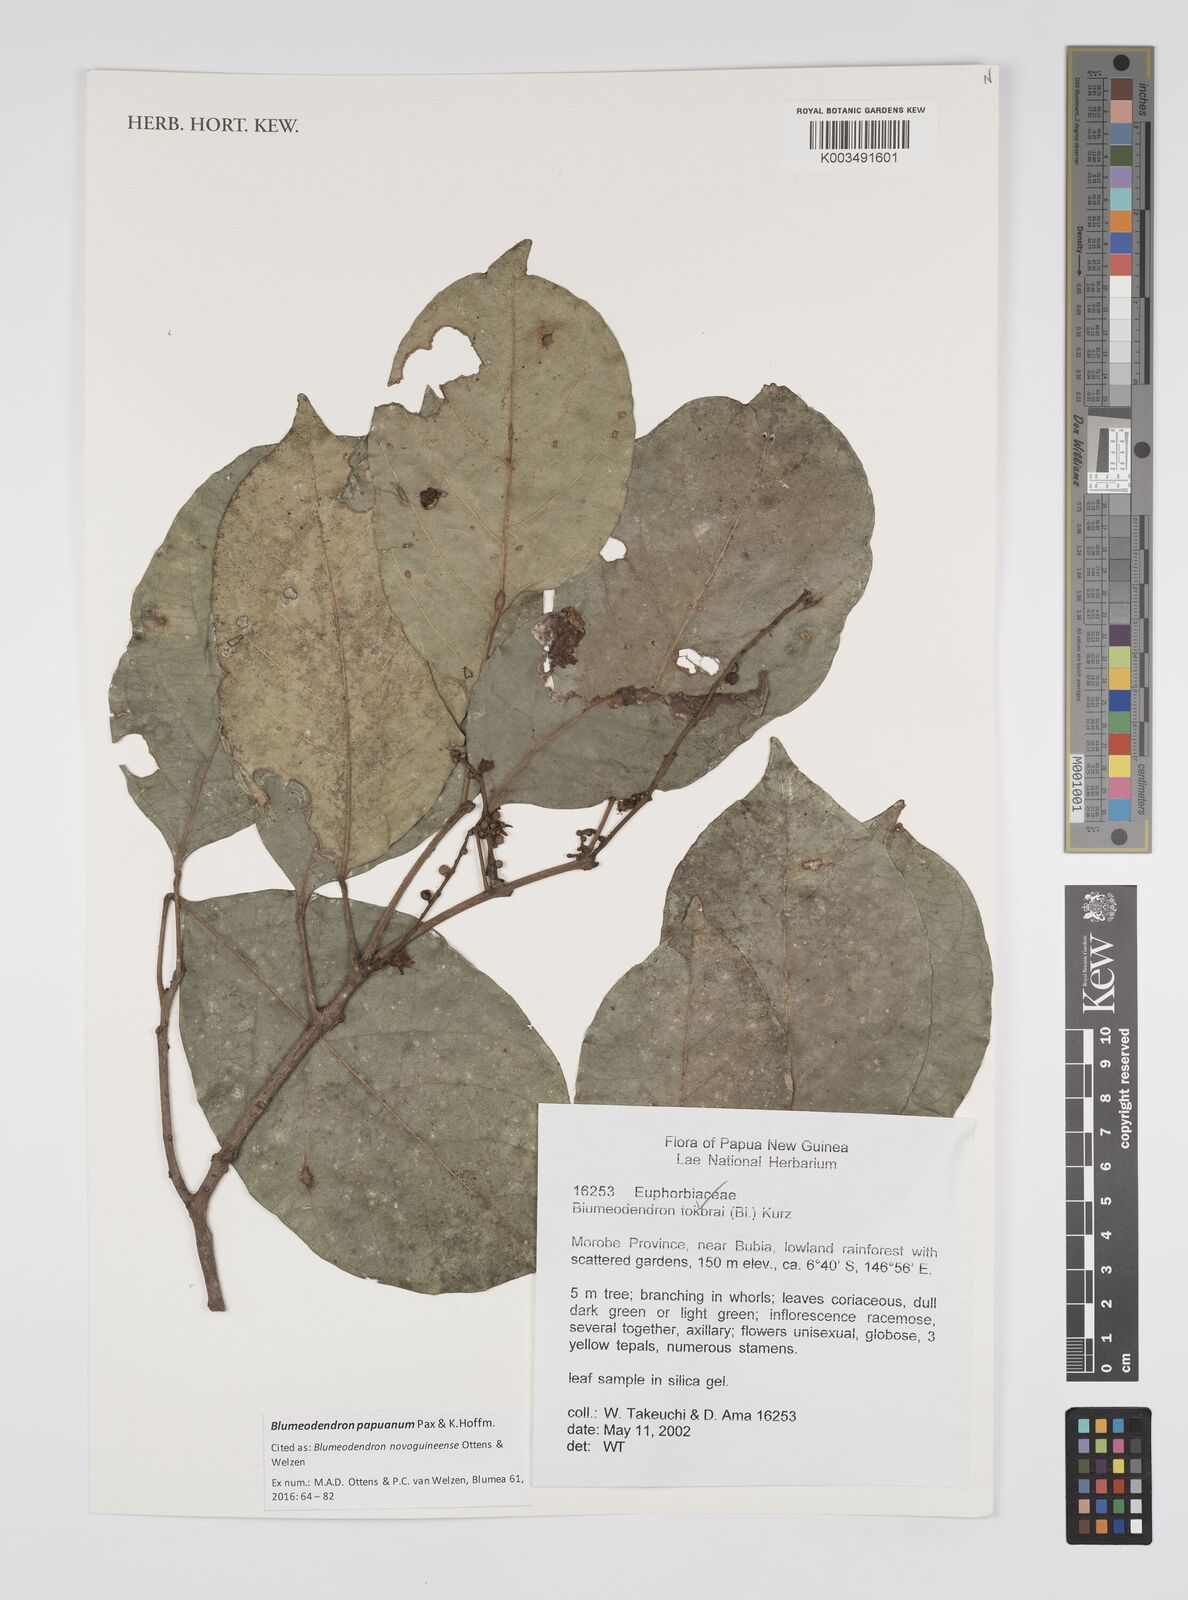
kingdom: Plantae
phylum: Tracheophyta
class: Magnoliopsida
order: Malpighiales
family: Euphorbiaceae
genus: Blumeodendron
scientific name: Blumeodendron papuanum
